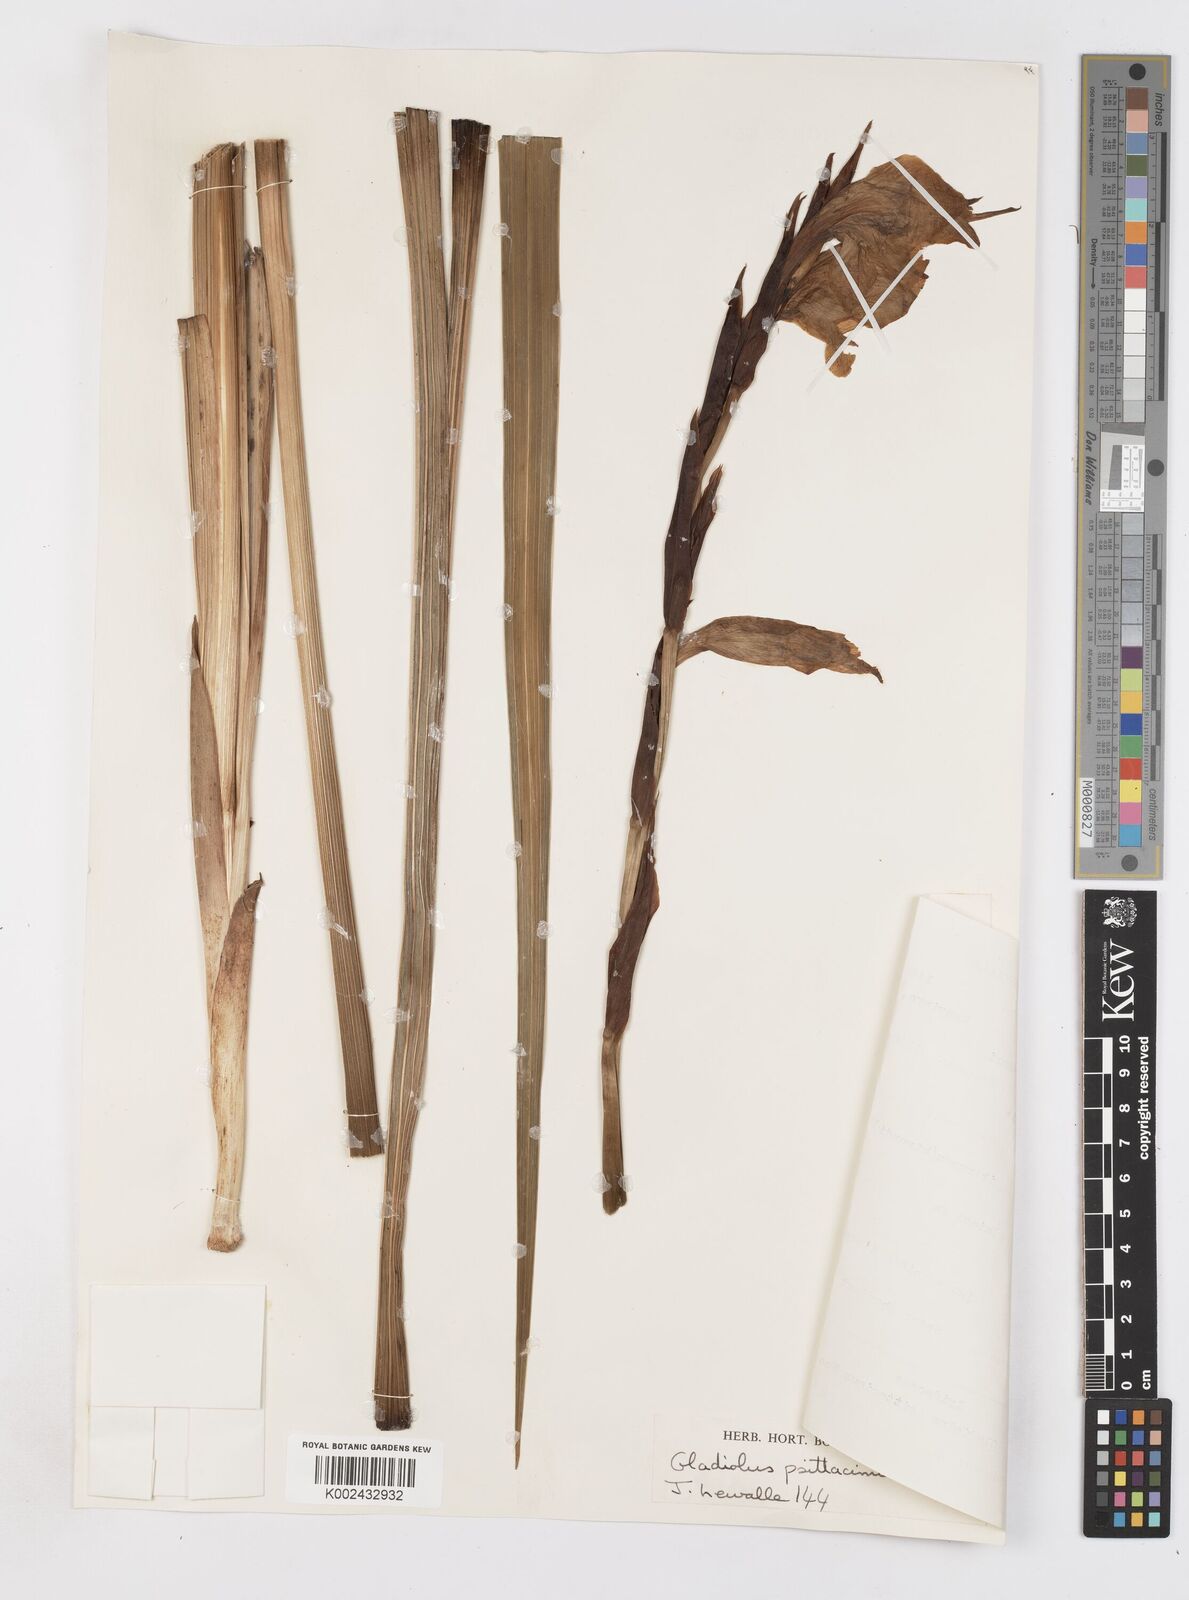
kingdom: Plantae
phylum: Tracheophyta
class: Liliopsida
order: Asparagales
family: Iridaceae
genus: Gladiolus
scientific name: Gladiolus dalenii
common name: Cornflag
